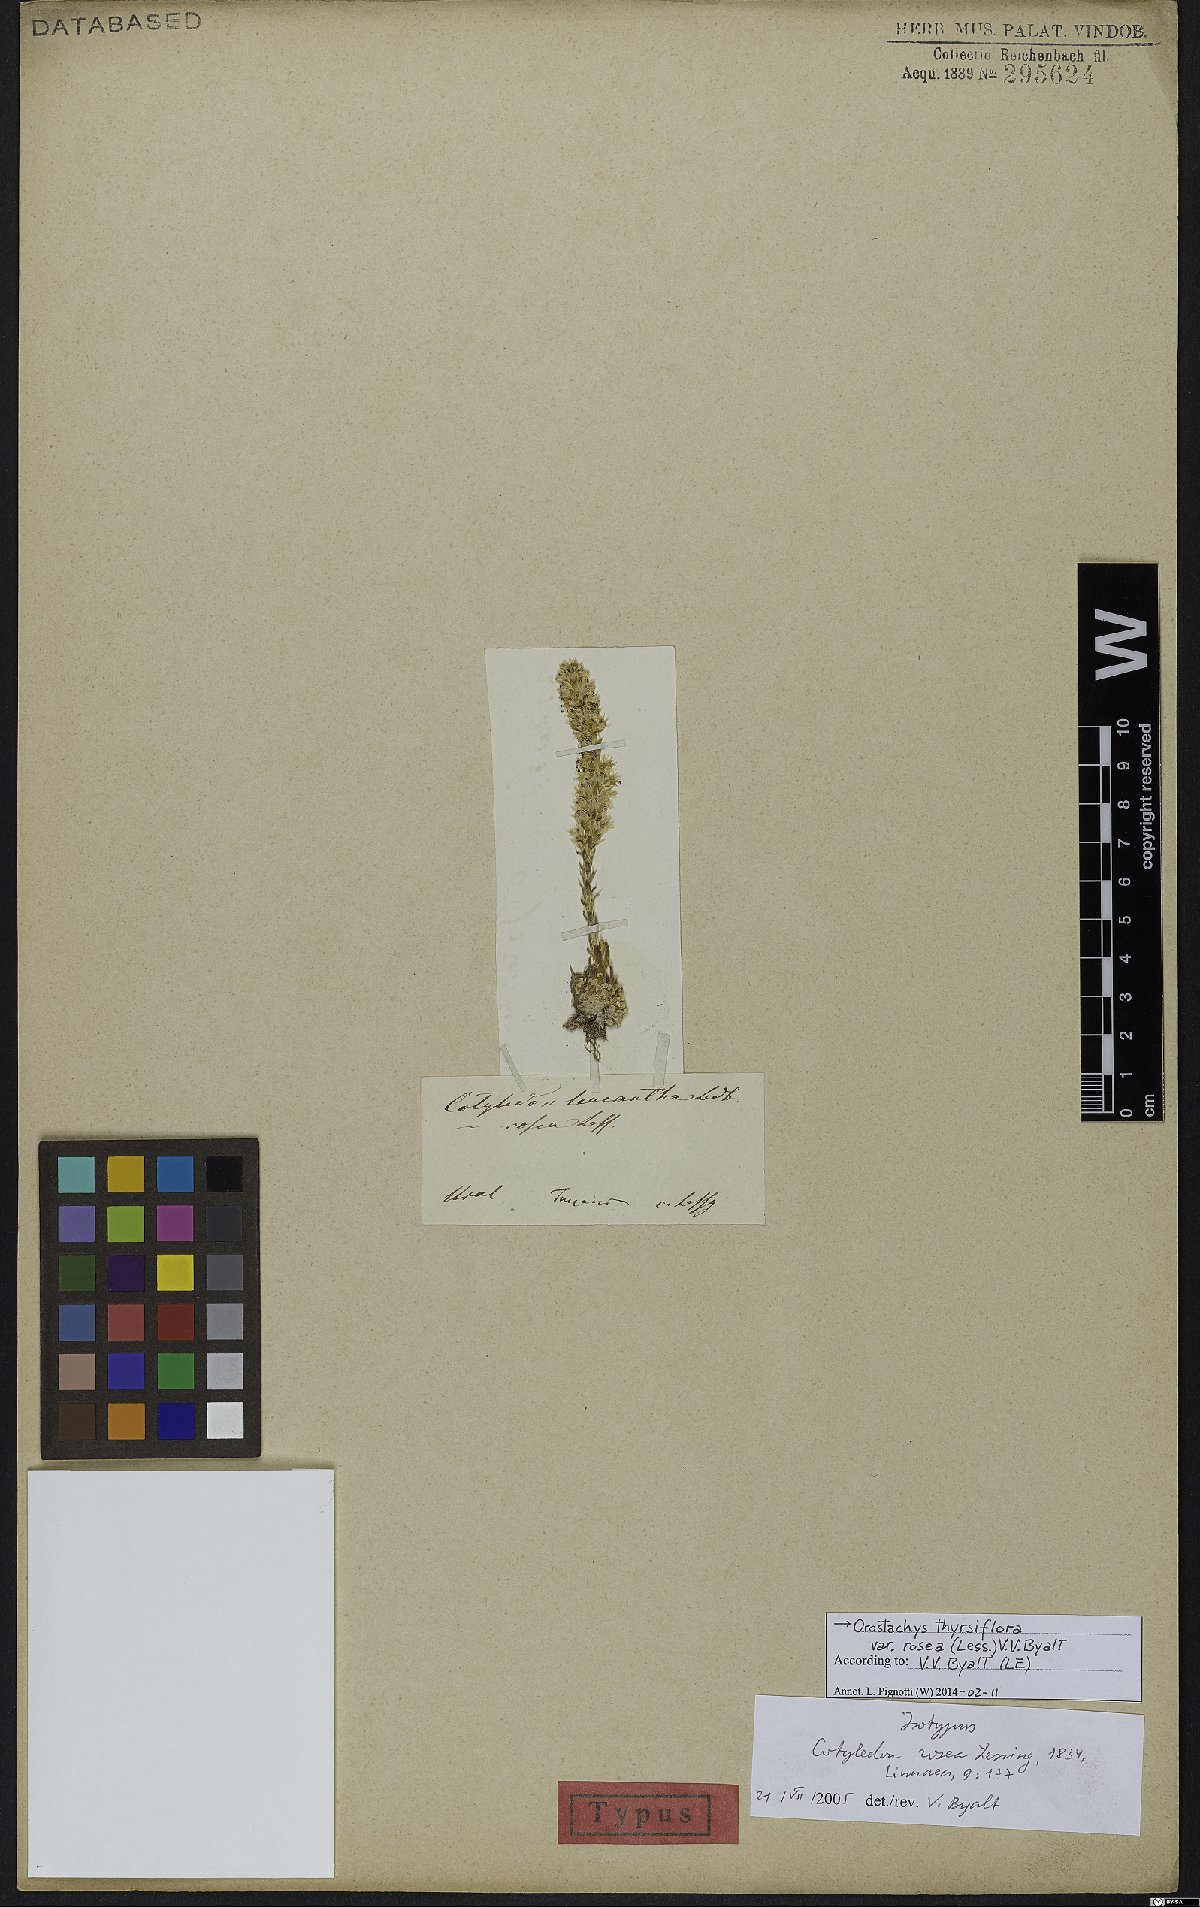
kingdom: Plantae
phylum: Tracheophyta
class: Magnoliopsida
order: Saxifragales
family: Crassulaceae
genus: Orostachys
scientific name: Orostachys thyrsiflora
